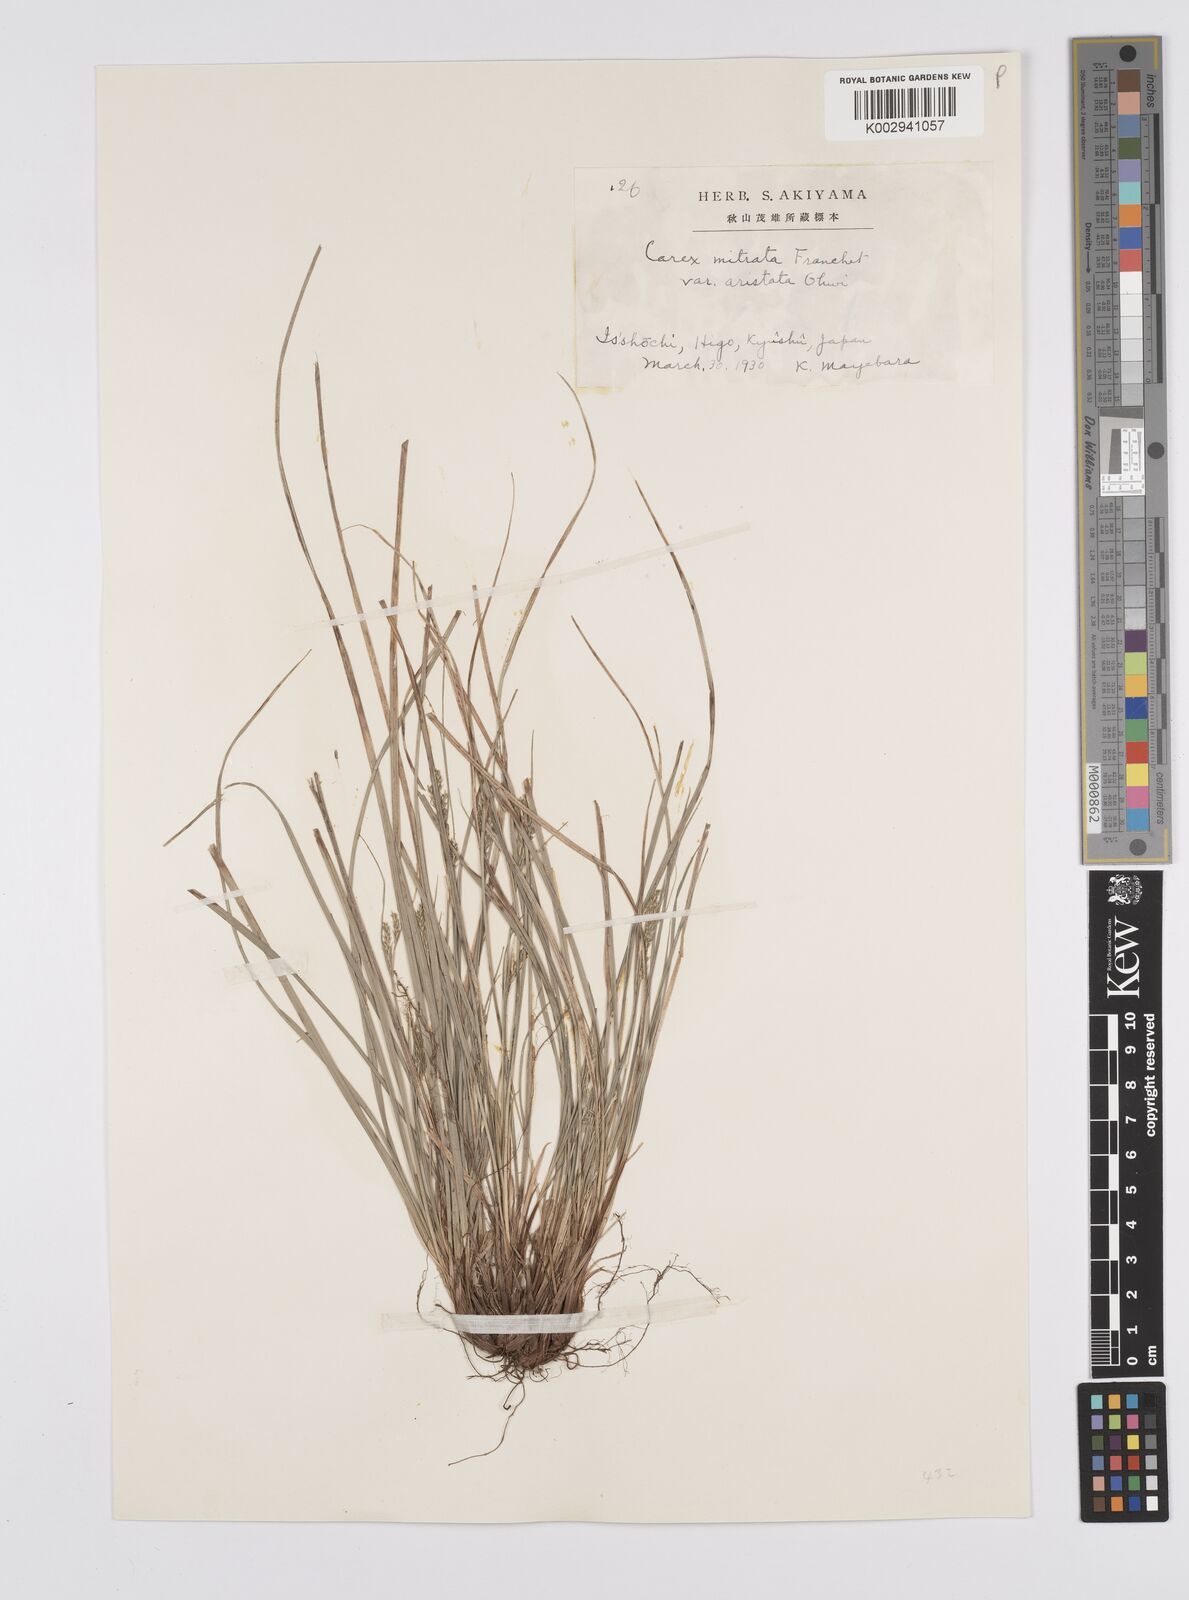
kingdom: Plantae
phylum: Tracheophyta
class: Liliopsida
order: Poales
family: Cyperaceae
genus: Carex
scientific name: Carex mitrata
